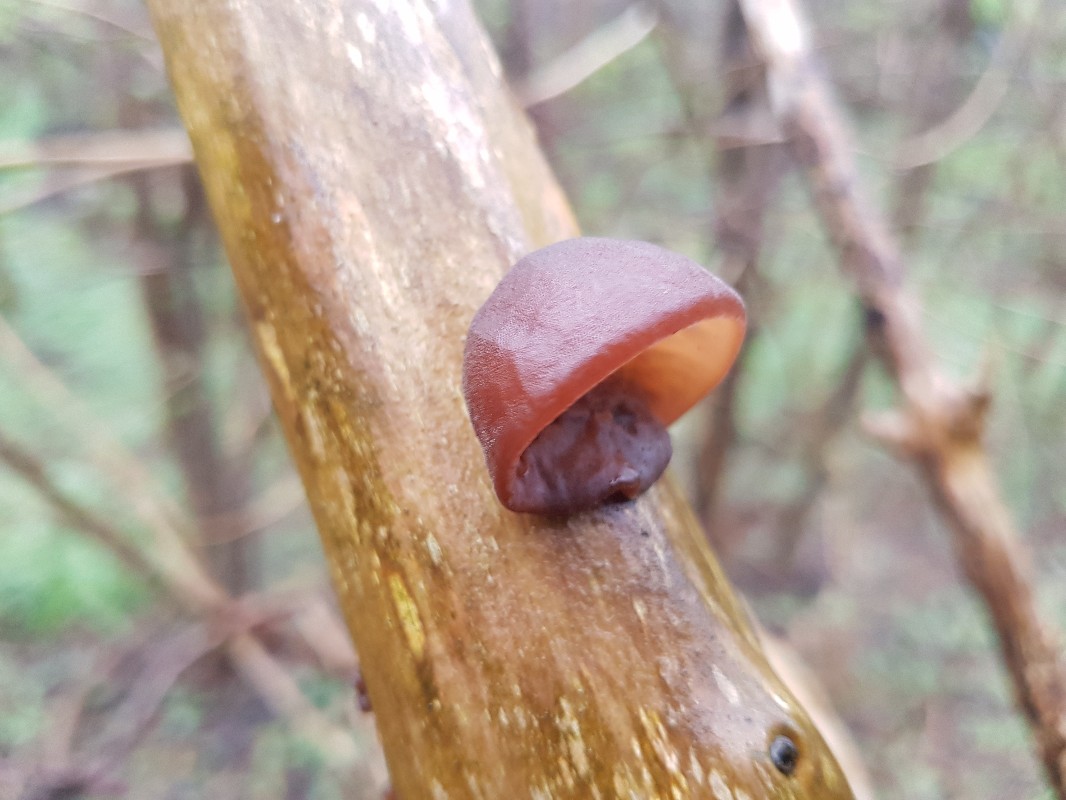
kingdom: Fungi
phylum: Basidiomycota
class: Agaricomycetes
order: Auriculariales
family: Auriculariaceae
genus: Auricularia
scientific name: Auricularia auricula-judae
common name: almindelig judasøre
